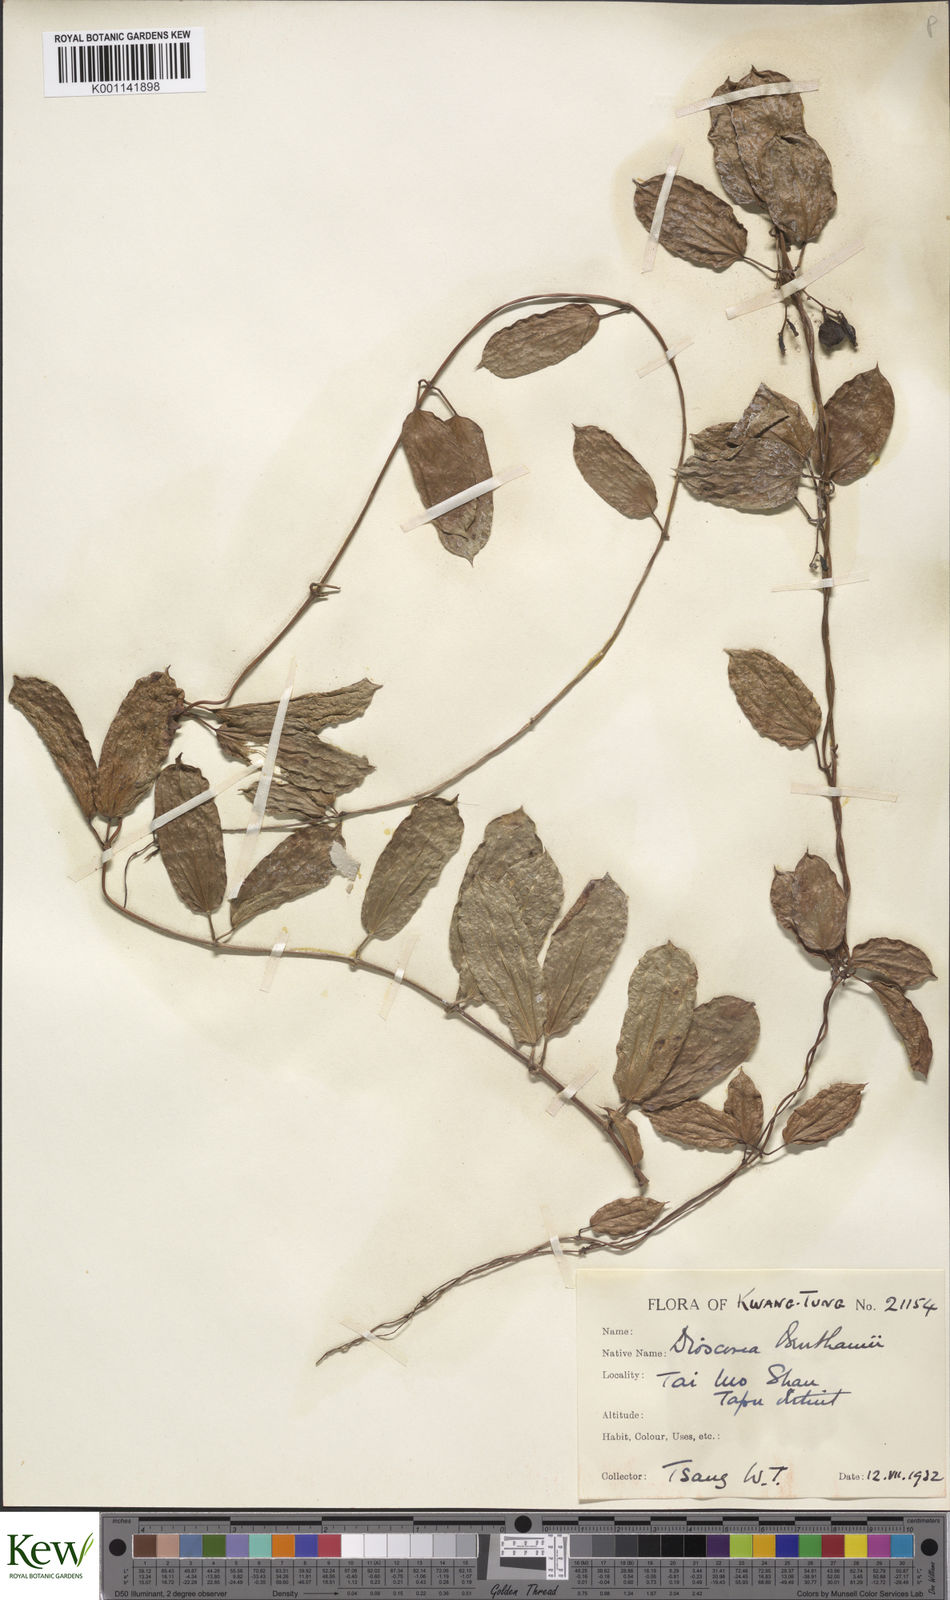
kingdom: Plantae
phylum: Tracheophyta
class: Liliopsida
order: Dioscoreales
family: Dioscoreaceae
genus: Dioscorea
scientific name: Dioscorea benthamii
